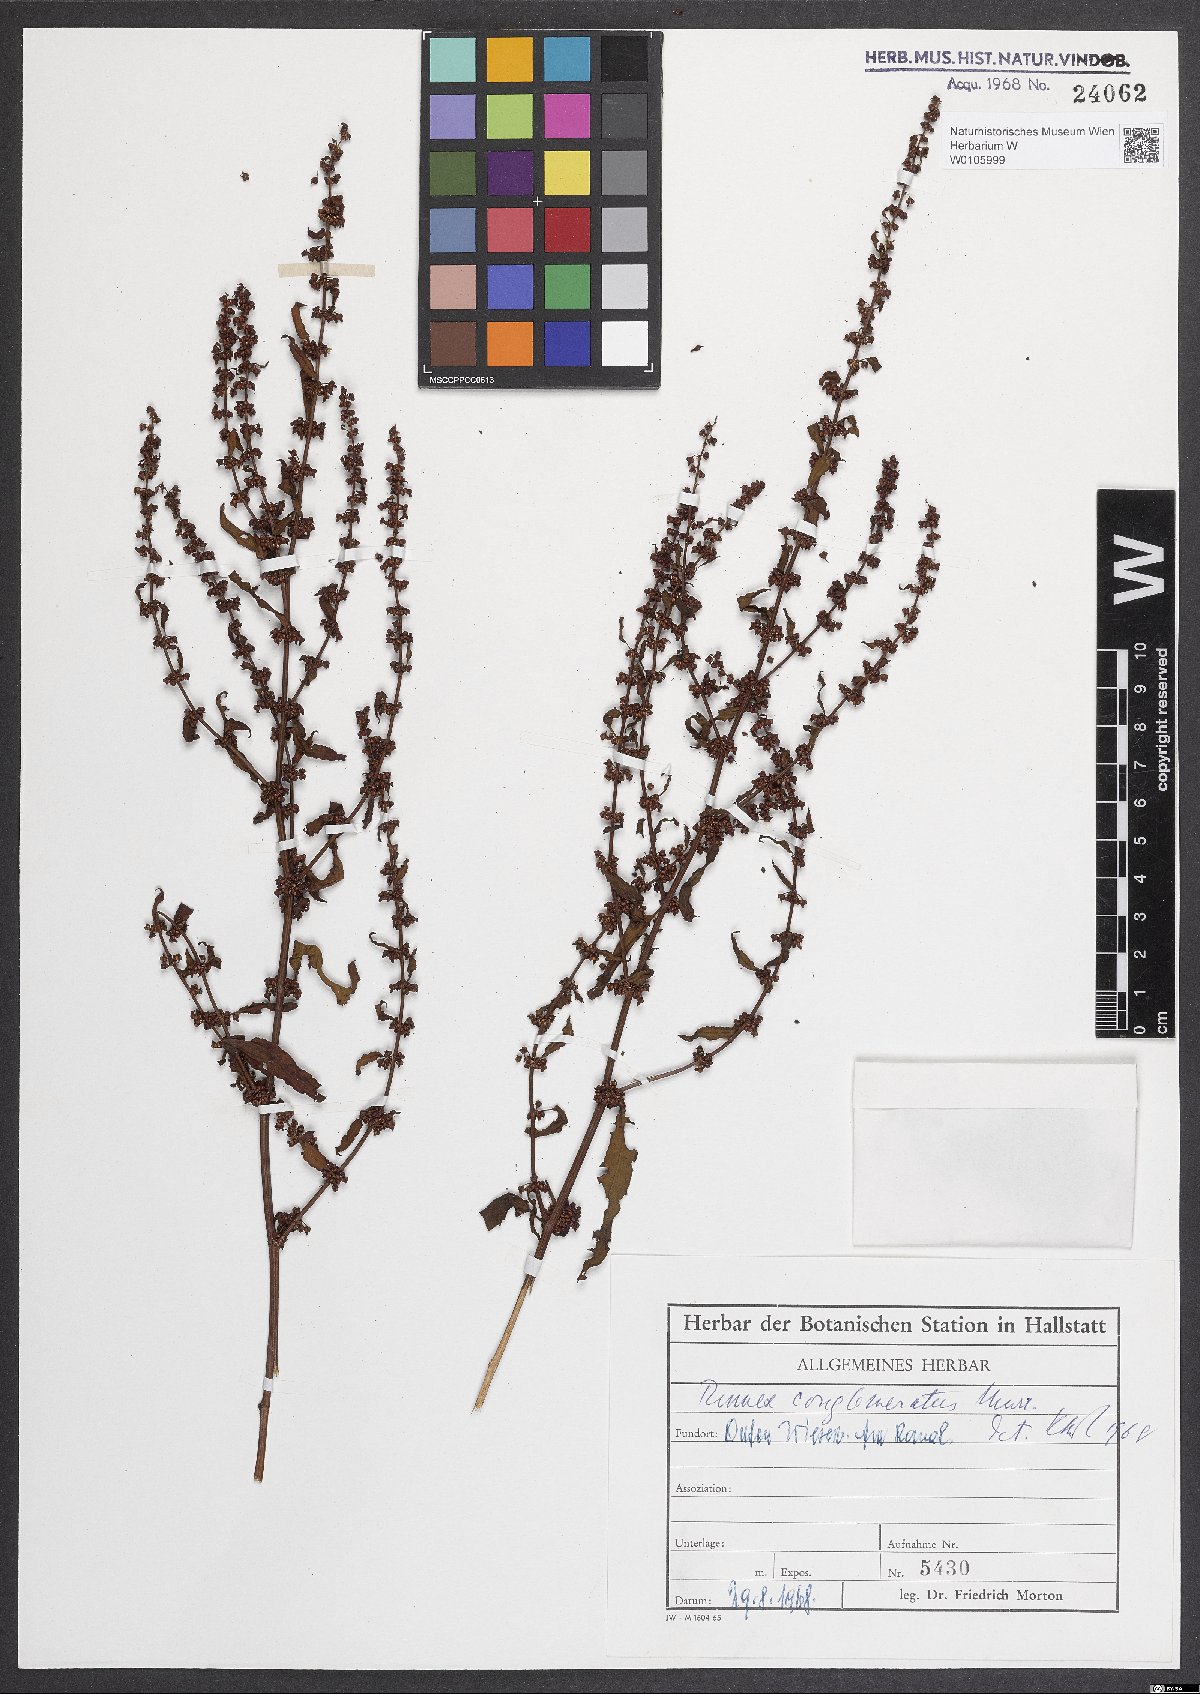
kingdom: Plantae
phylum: Tracheophyta
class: Magnoliopsida
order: Caryophyllales
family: Polygonaceae
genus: Rumex
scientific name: Rumex conglomeratus
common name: Clustered dock
